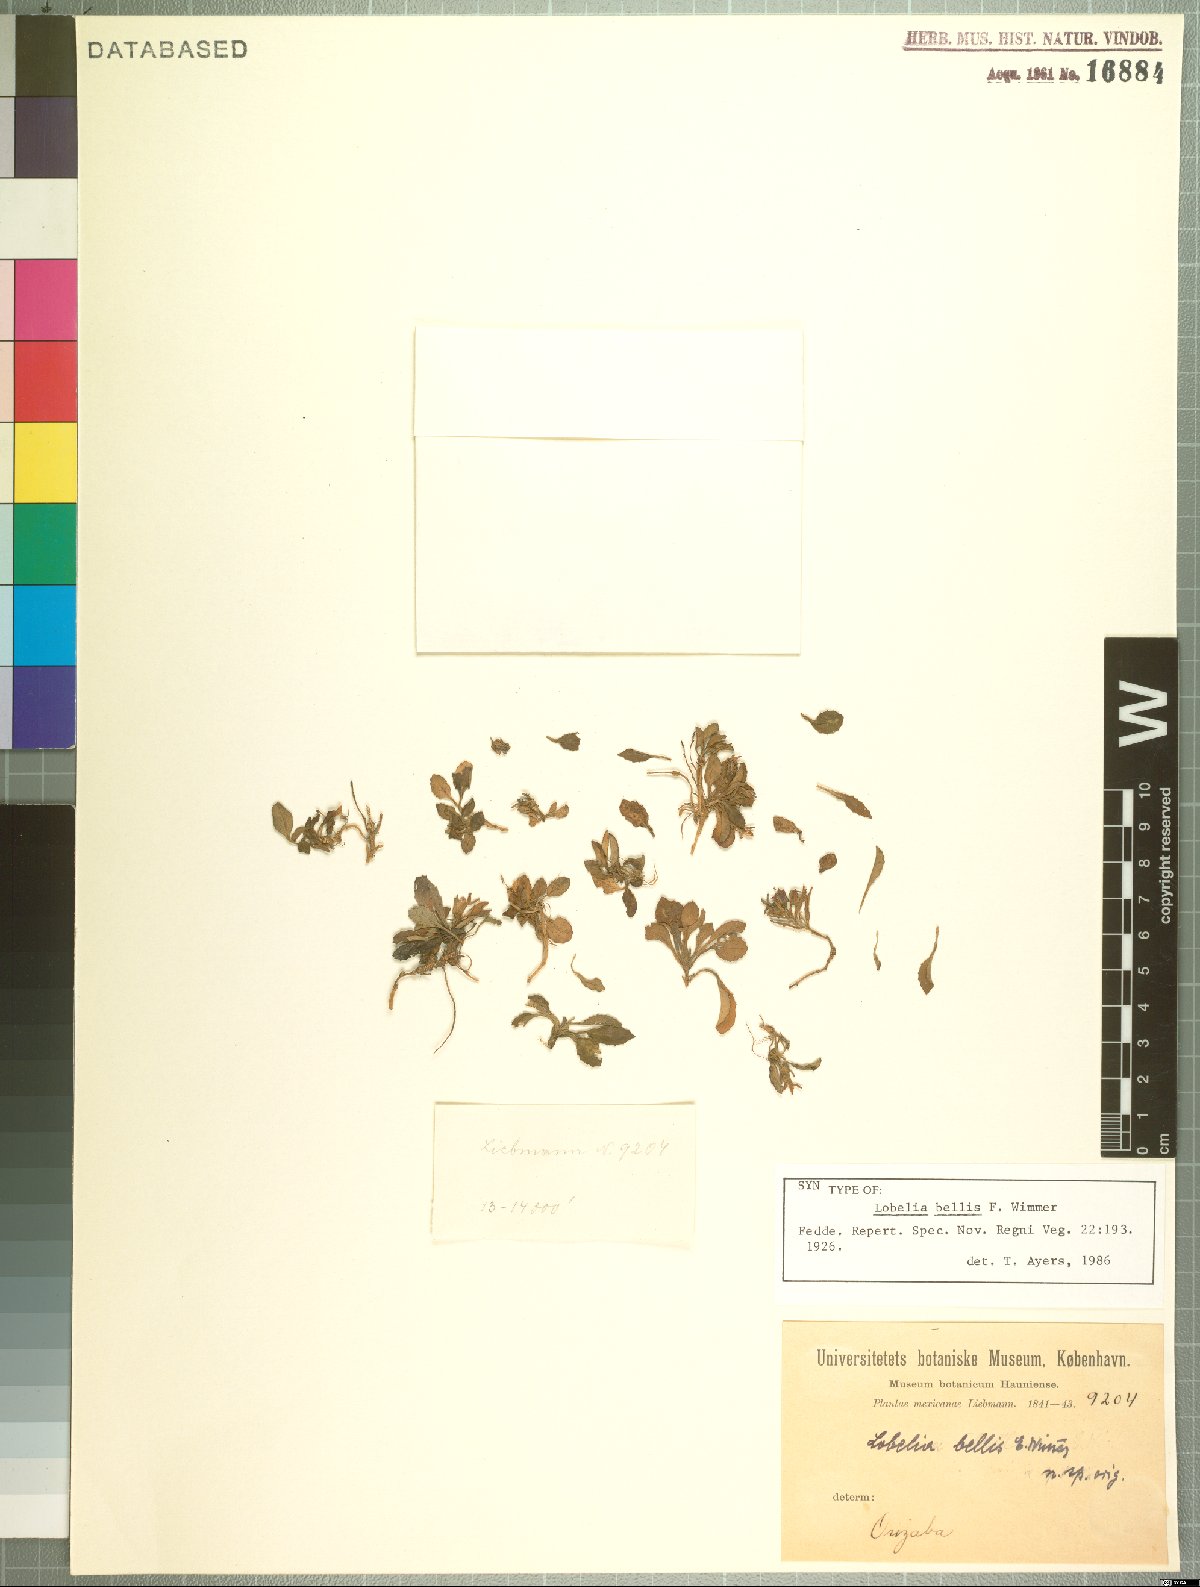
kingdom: Plantae
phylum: Tracheophyta
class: Magnoliopsida
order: Asterales
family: Campanulaceae
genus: Lobelia
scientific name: Lobelia nana
